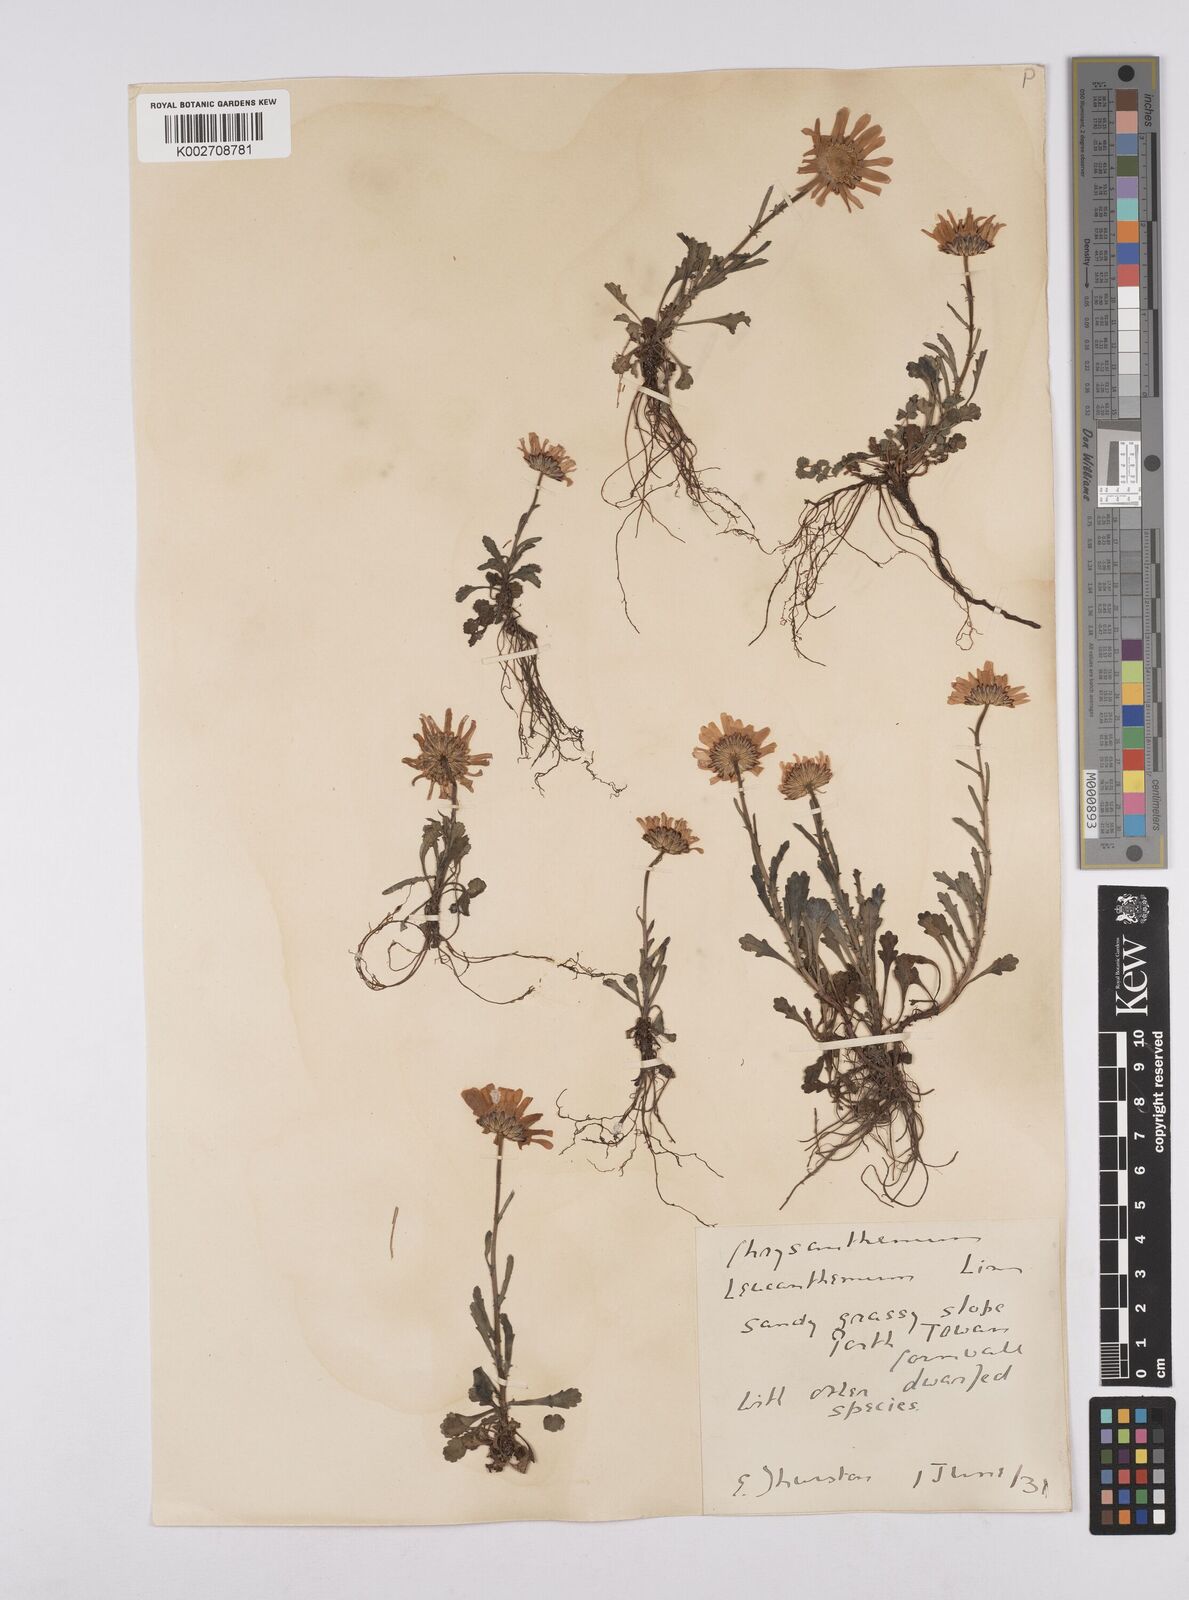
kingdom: Plantae
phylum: Tracheophyta
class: Magnoliopsida
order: Asterales
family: Asteraceae
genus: Leucanthemum
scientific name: Leucanthemum vulgare
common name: Oxeye daisy
